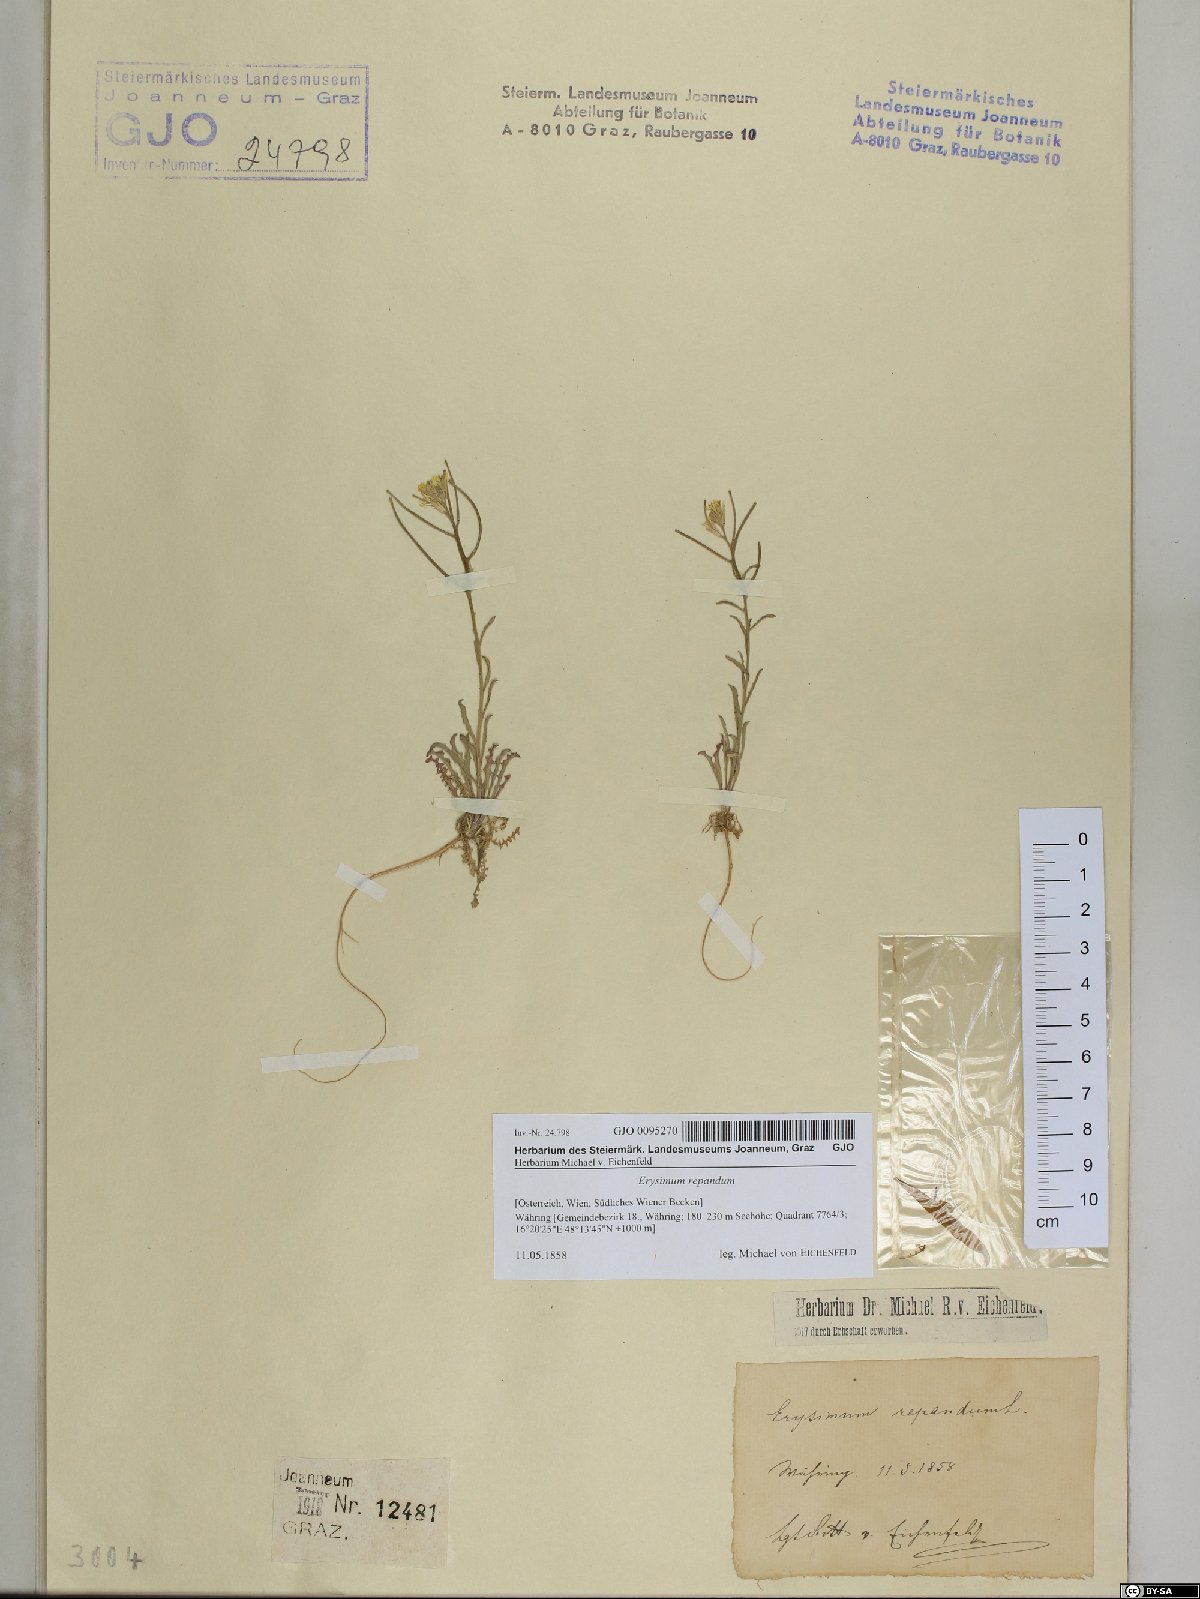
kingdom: Plantae
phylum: Tracheophyta
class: Magnoliopsida
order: Brassicales
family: Brassicaceae
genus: Erysimum
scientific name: Erysimum repandum
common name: Spreading wallflower
